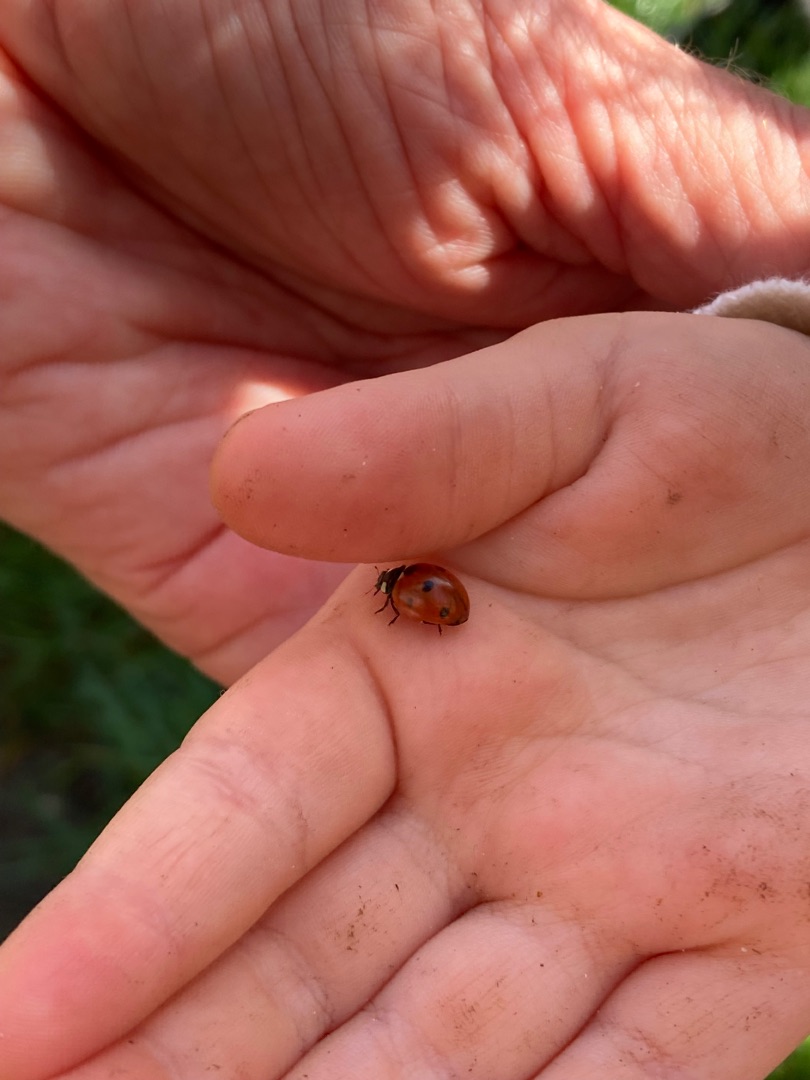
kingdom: Animalia
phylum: Arthropoda
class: Insecta
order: Coleoptera
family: Coccinellidae
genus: Coccinella
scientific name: Coccinella septempunctata
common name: Syvplettet mariehøne
